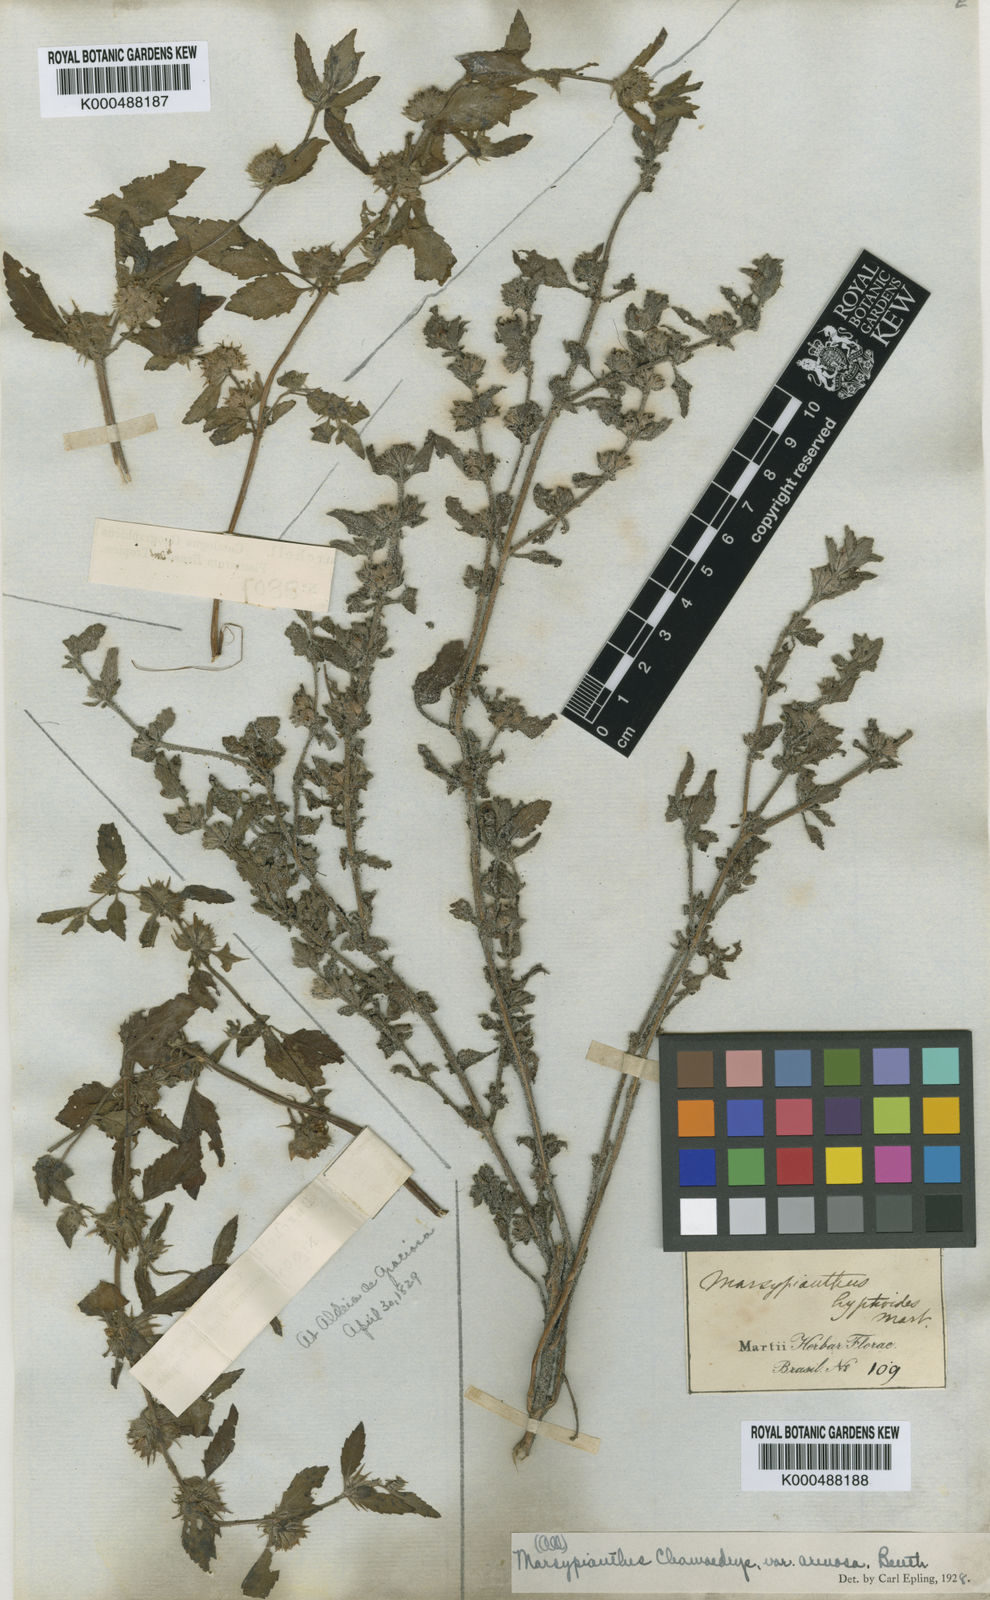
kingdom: Plantae
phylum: Tracheophyta
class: Magnoliopsida
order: Lamiales
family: Lamiaceae
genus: Marsypianthes
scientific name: Marsypianthes chamaedrys
